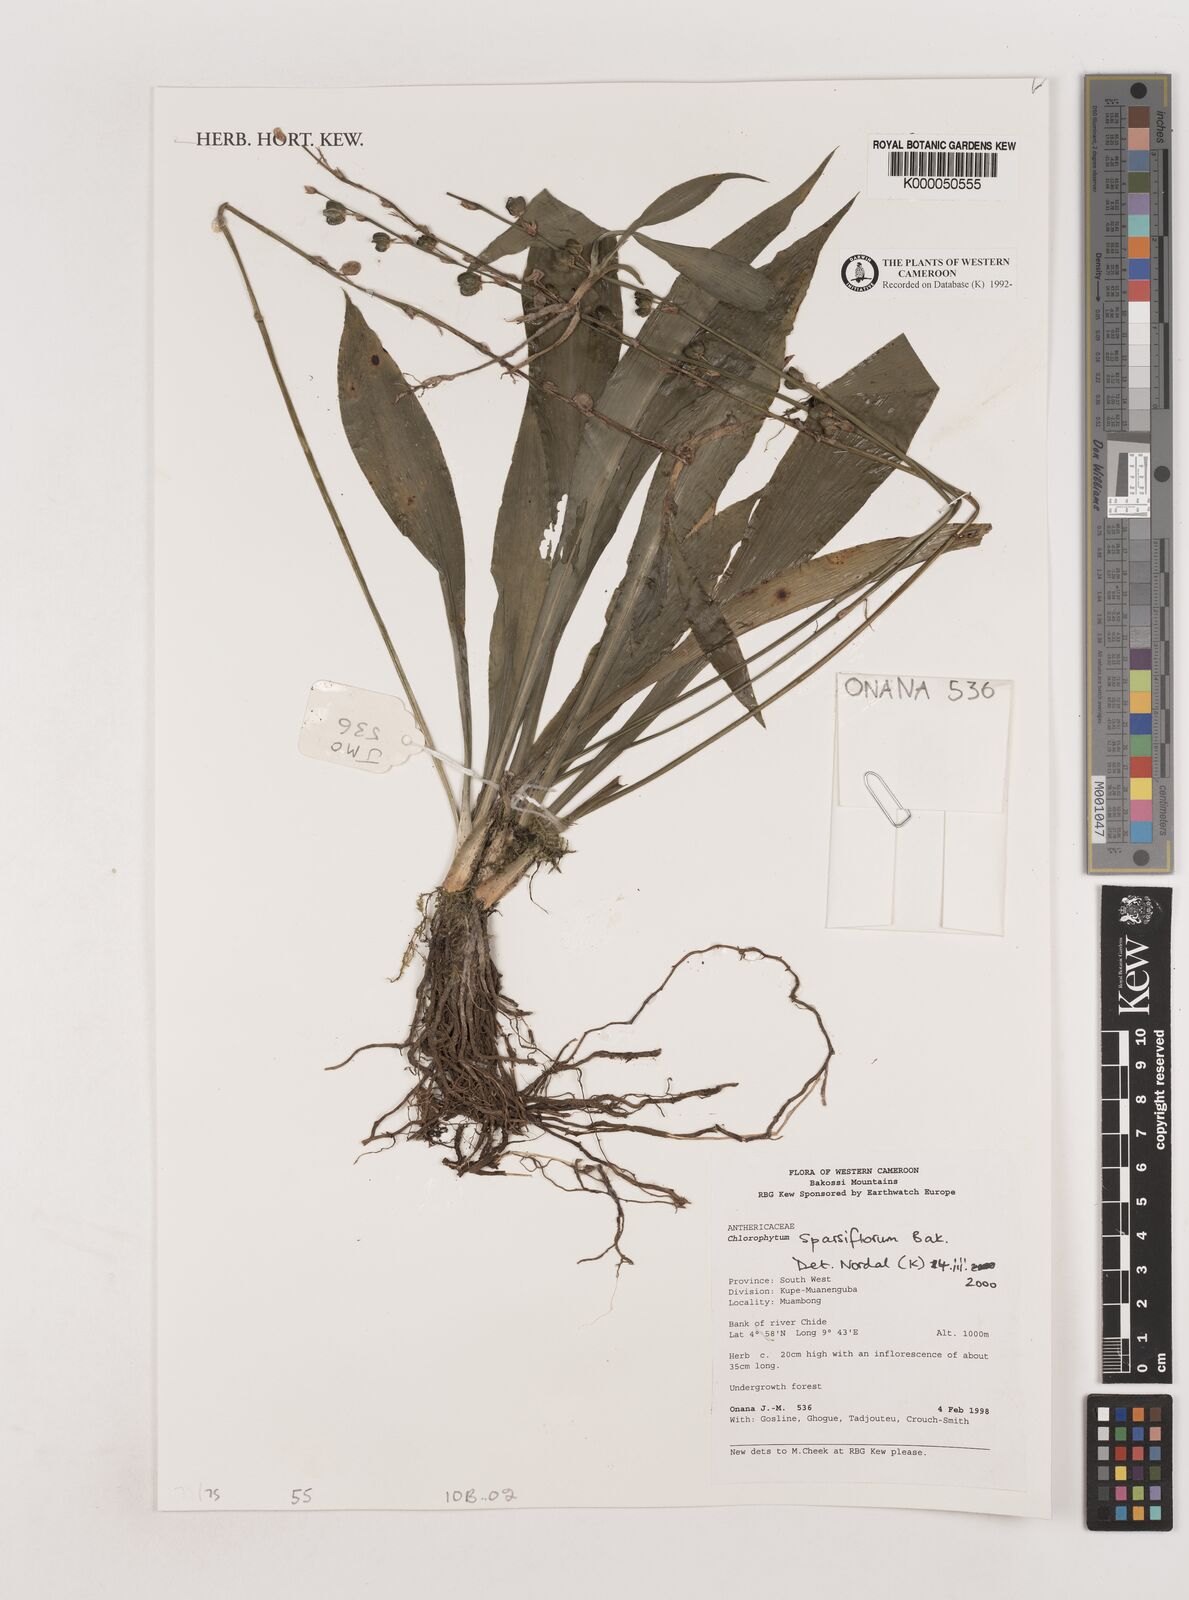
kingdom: Plantae
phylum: Tracheophyta
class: Liliopsida
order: Asparagales
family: Asparagaceae
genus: Chlorophytum
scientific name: Chlorophytum sparsiflorum
